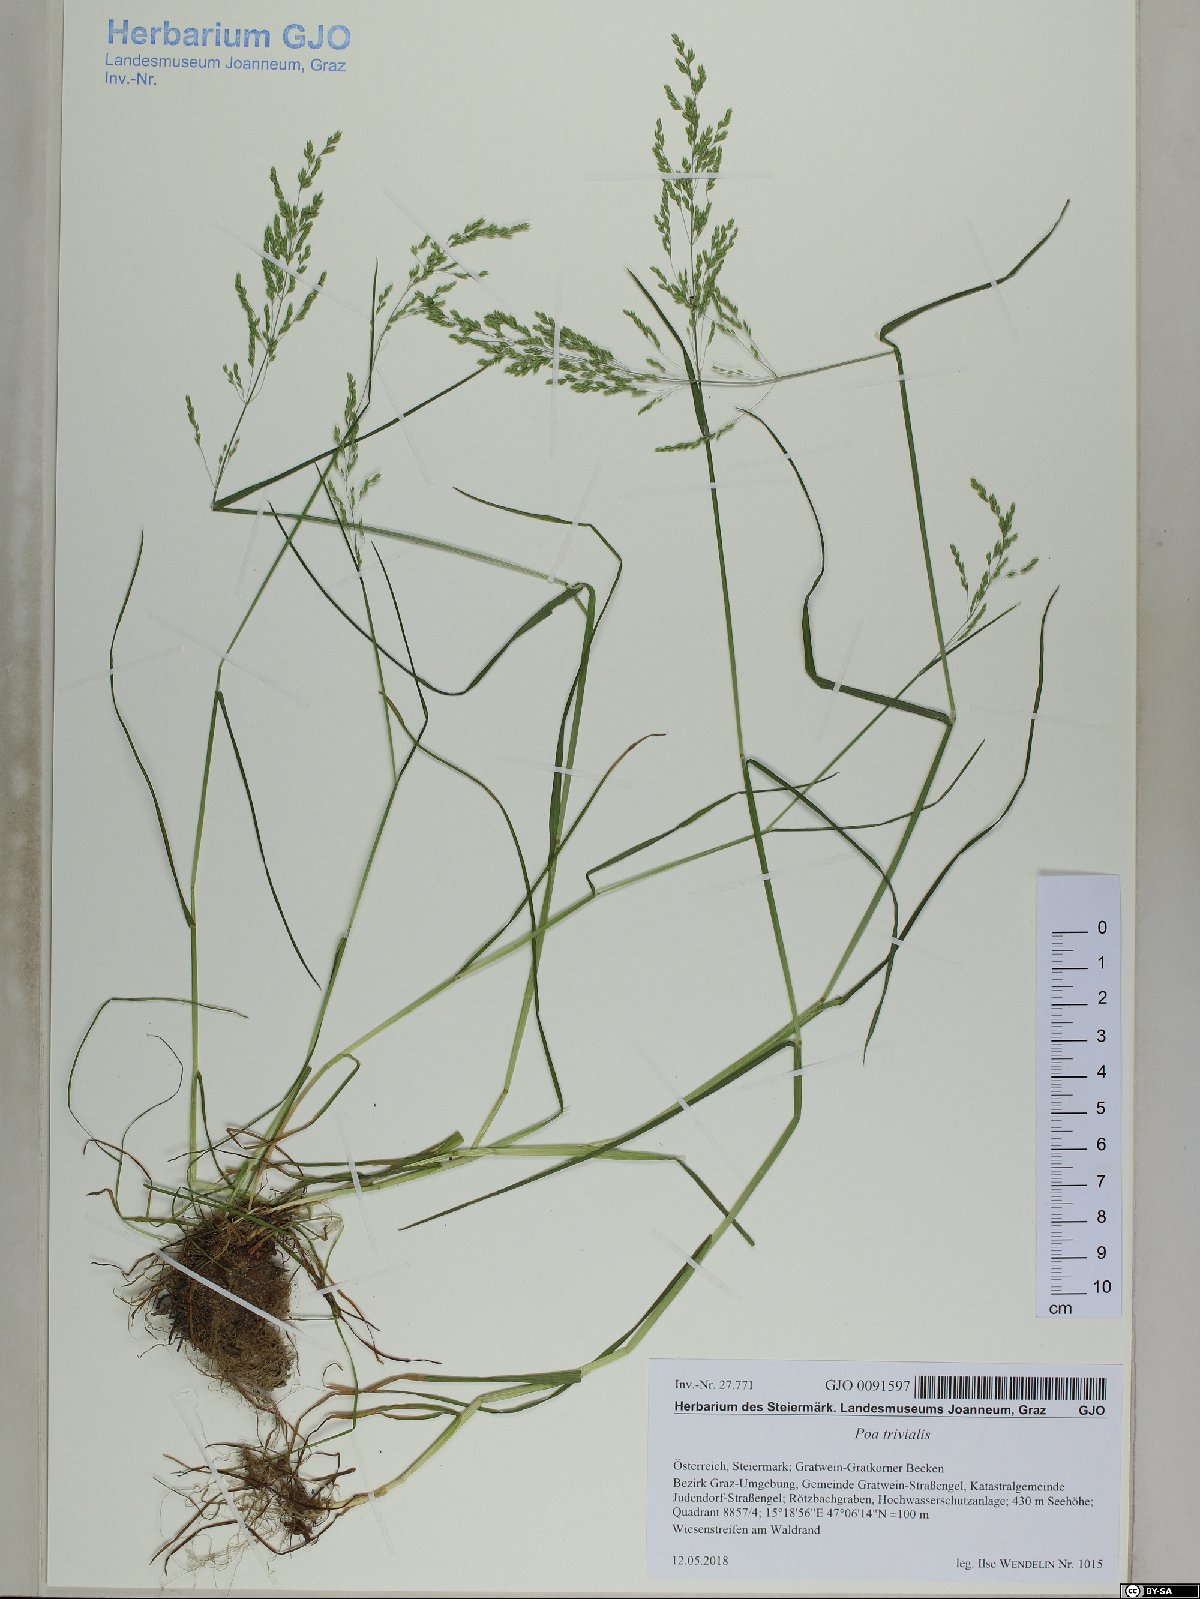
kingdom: Plantae
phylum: Tracheophyta
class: Liliopsida
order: Poales
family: Poaceae
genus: Poa
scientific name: Poa trivialis
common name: Rough bluegrass
